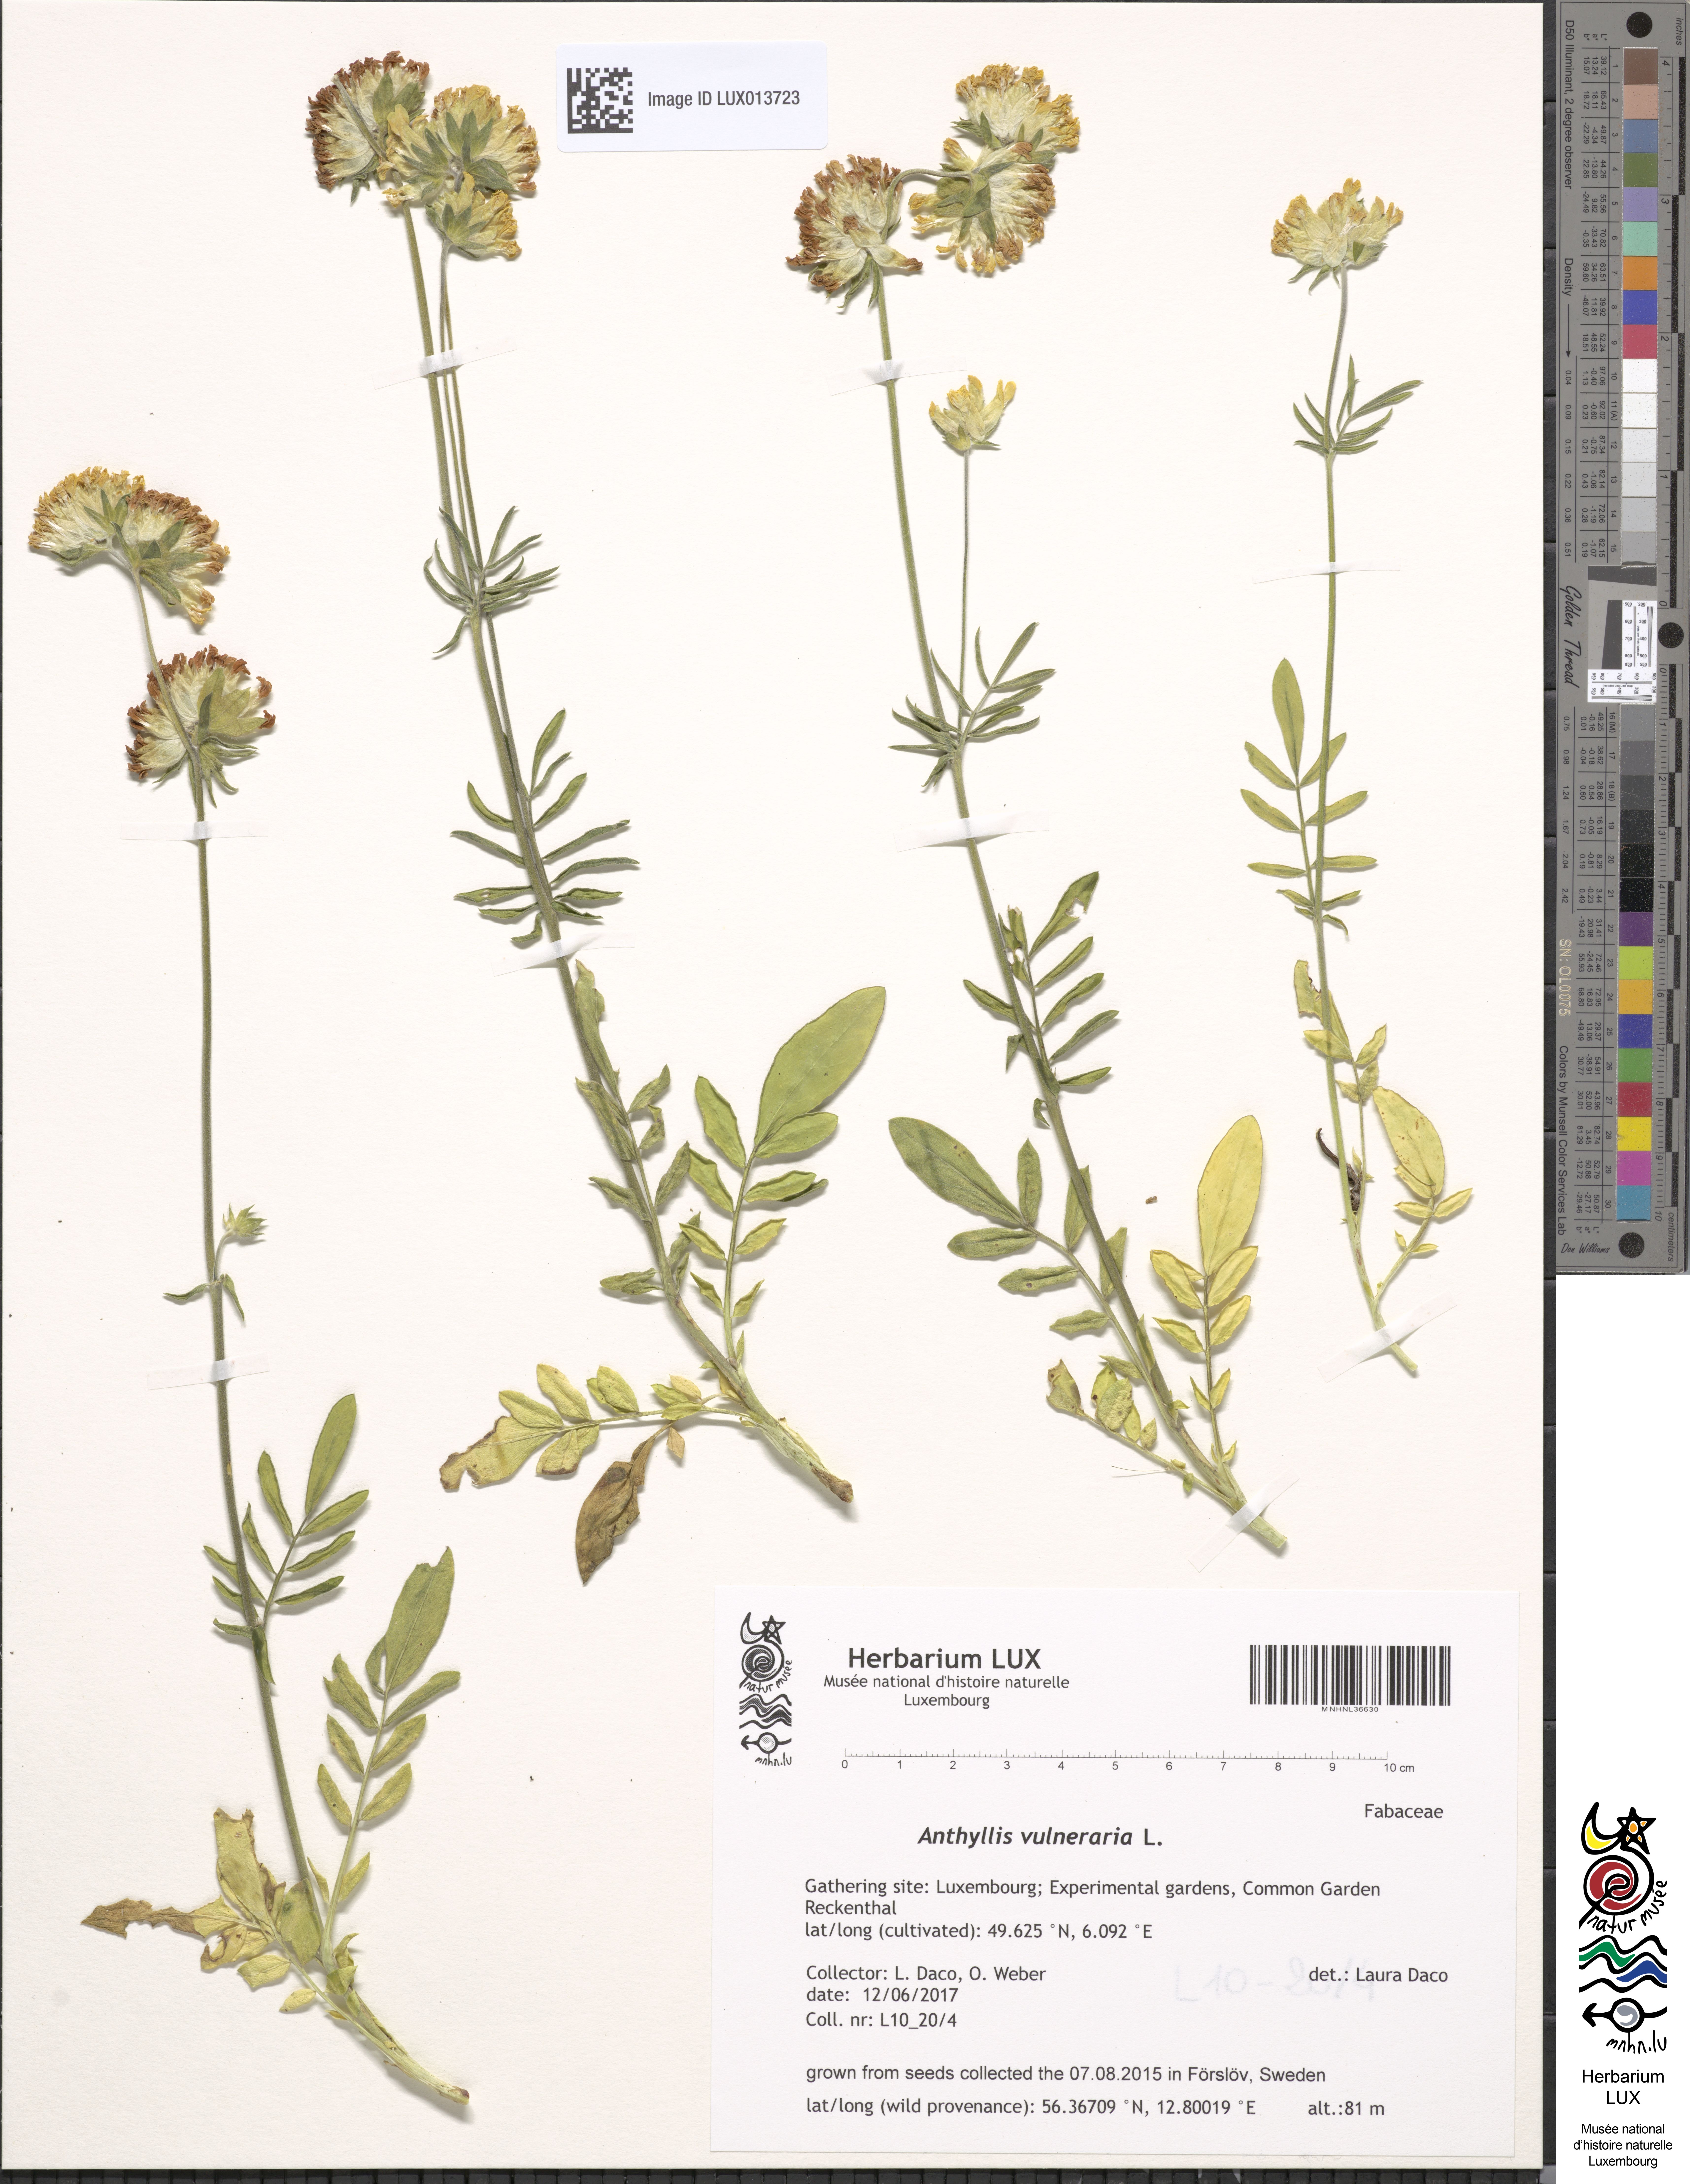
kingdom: Plantae
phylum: Tracheophyta
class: Magnoliopsida
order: Fabales
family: Fabaceae
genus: Anthyllis
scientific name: Anthyllis vulneraria
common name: Kidney vetch
